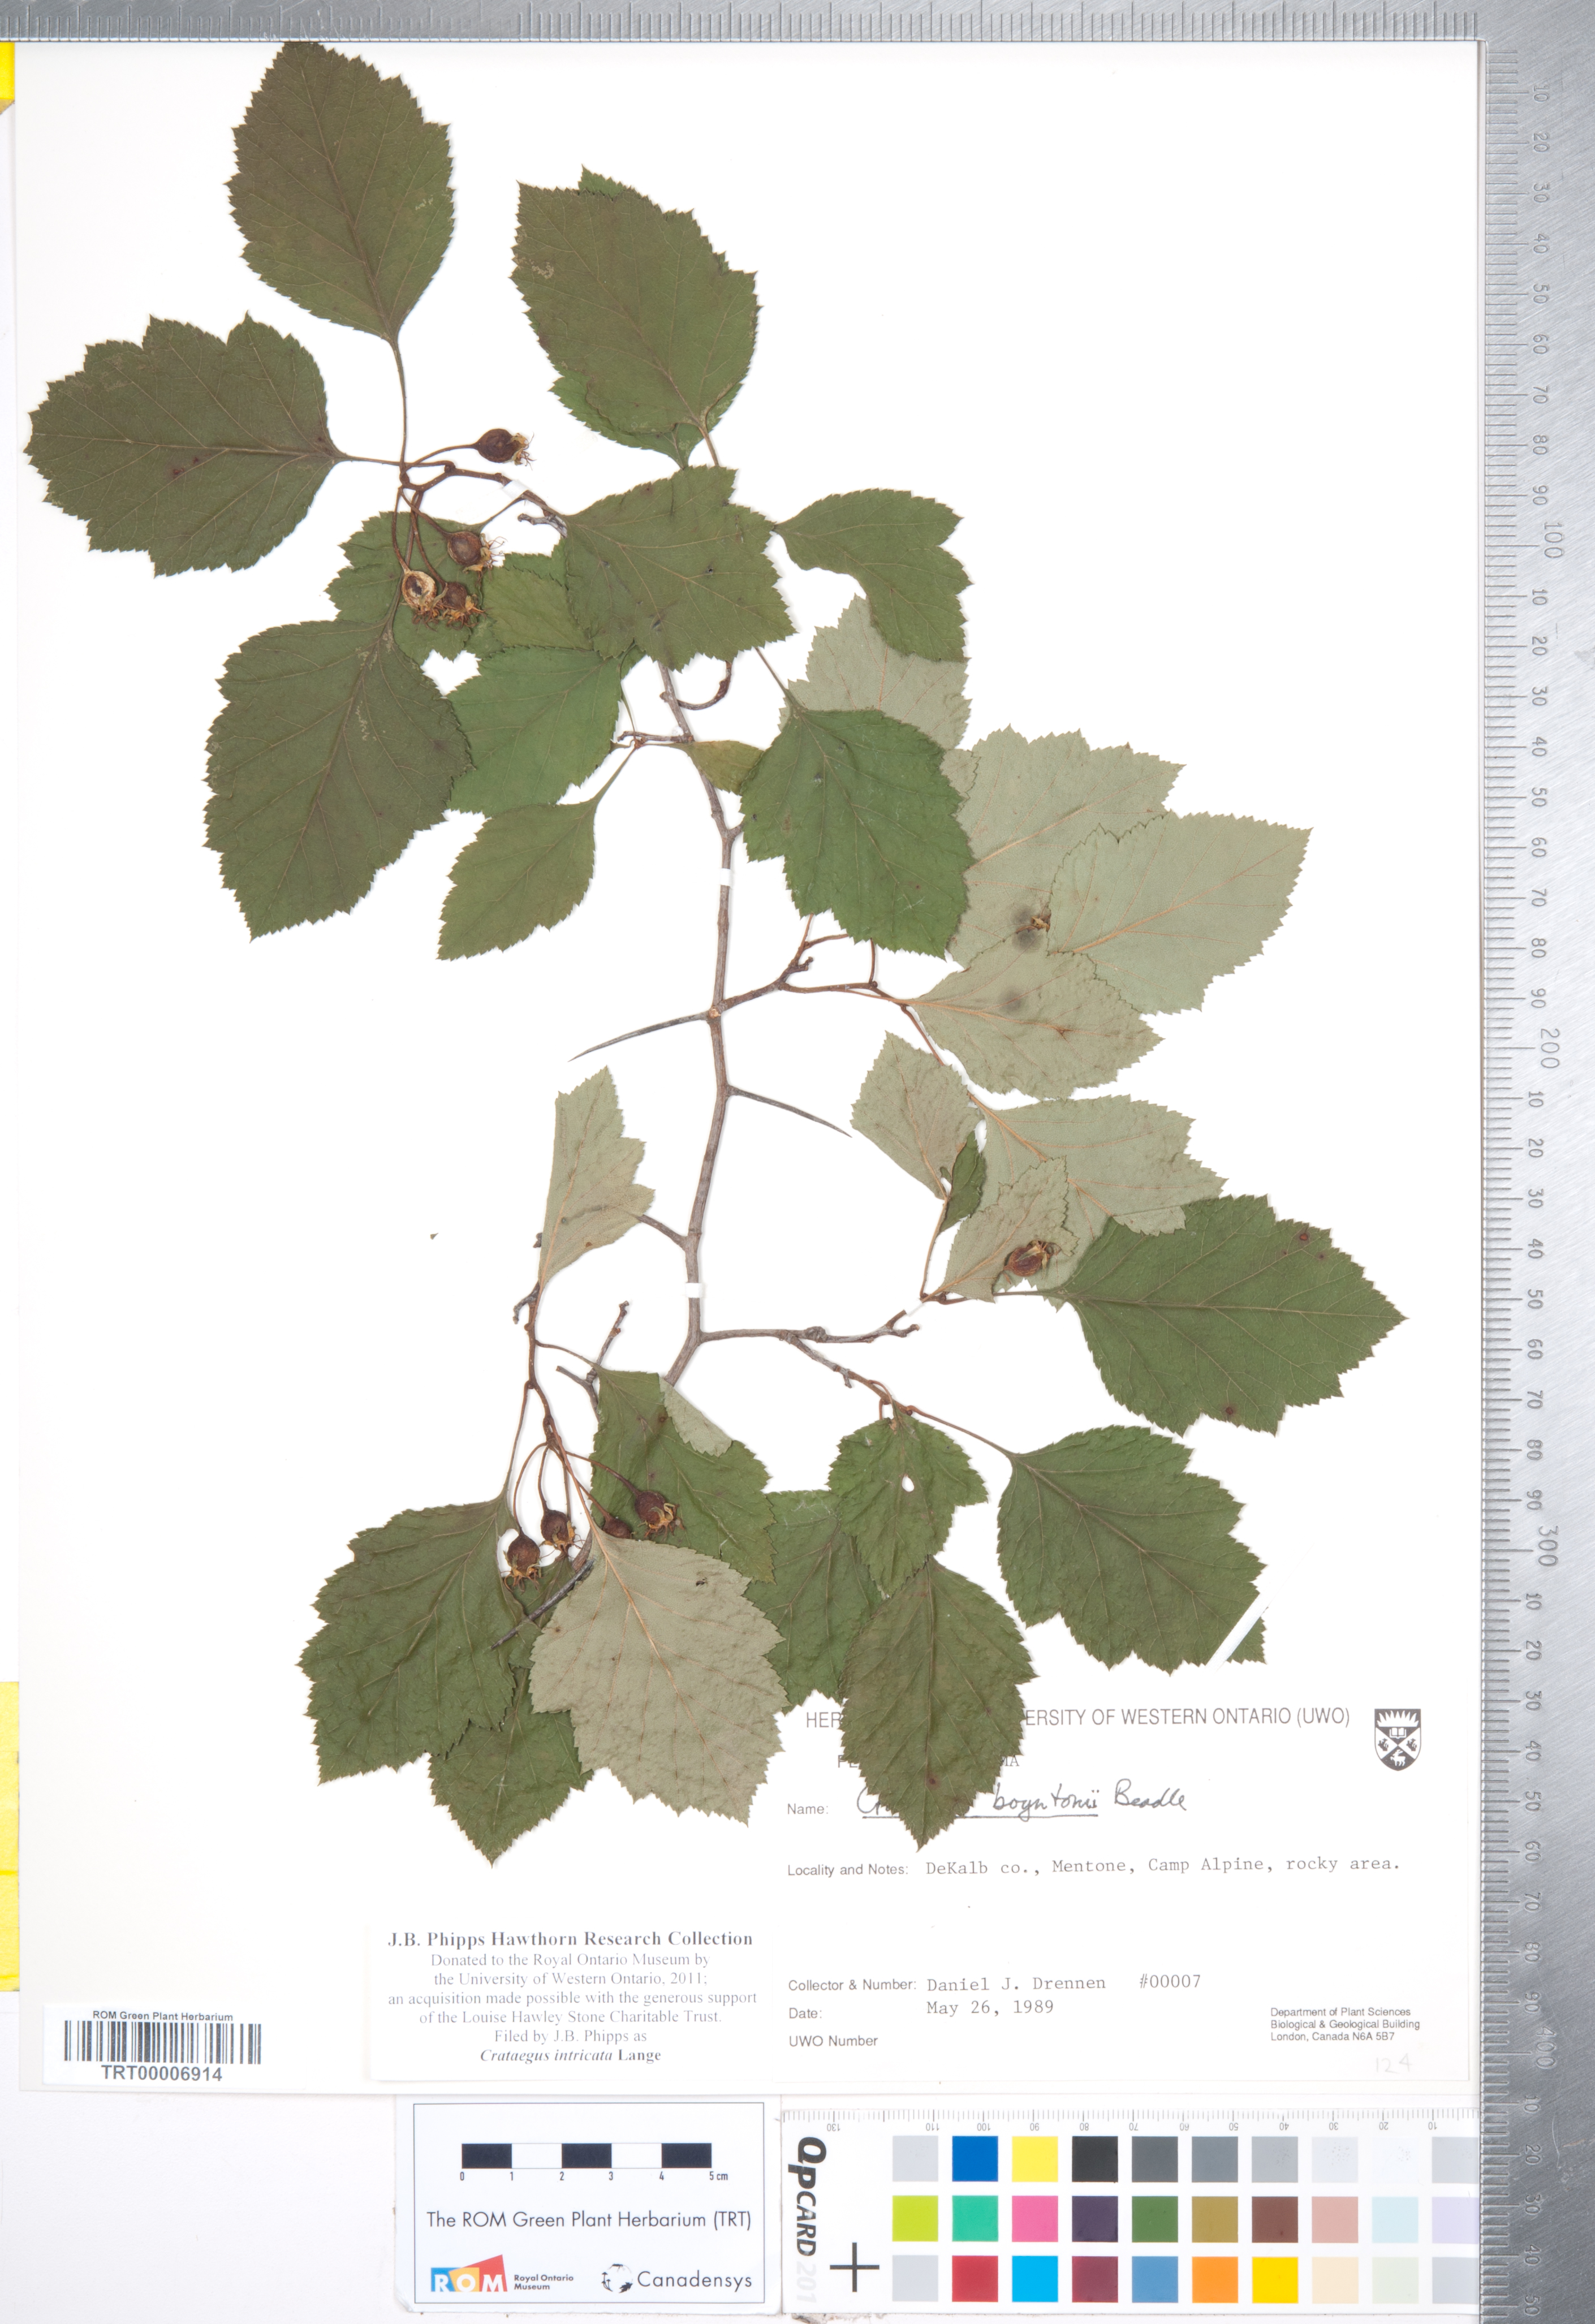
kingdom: Plantae
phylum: Tracheophyta
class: Magnoliopsida
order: Rosales
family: Rosaceae
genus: Crataegus
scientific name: Crataegus intricata
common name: Biltmore hawthorn
